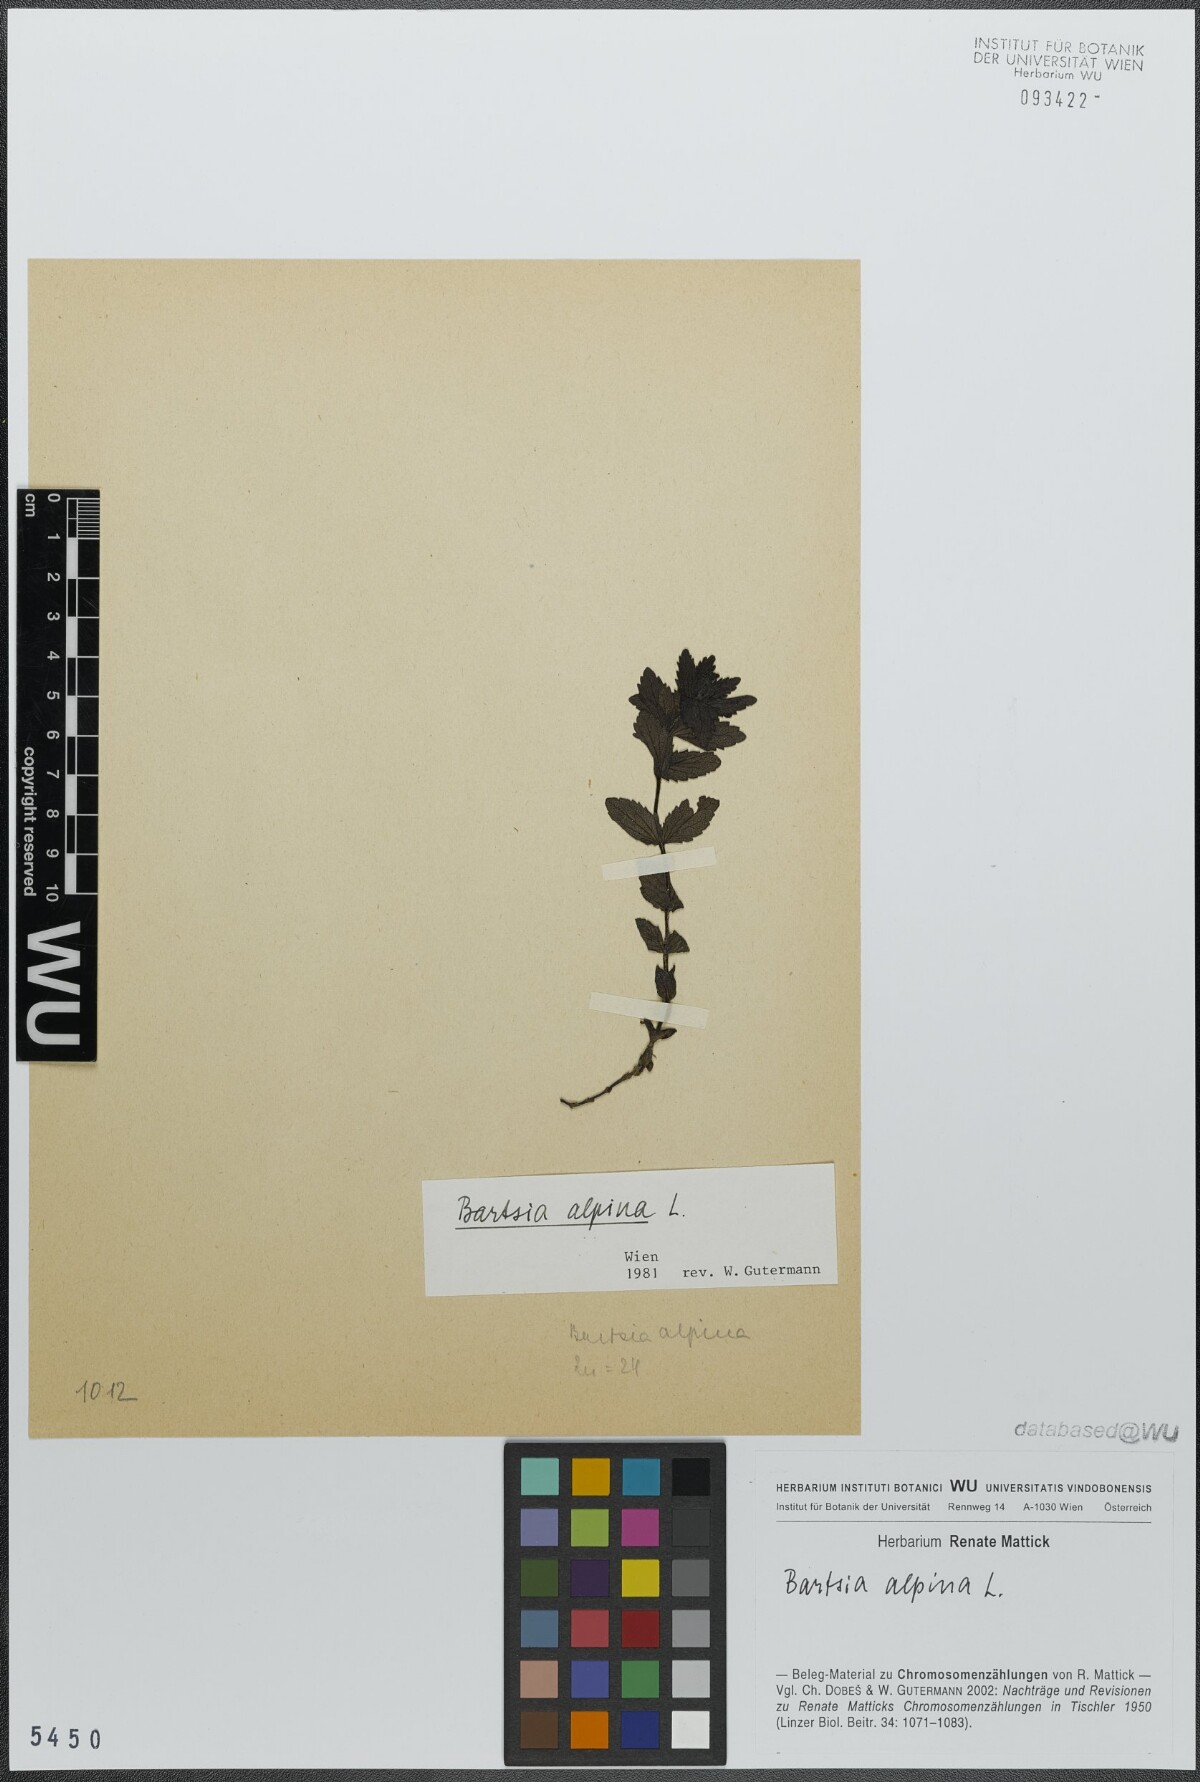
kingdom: Plantae
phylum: Tracheophyta
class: Magnoliopsida
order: Lamiales
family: Orobanchaceae
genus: Bartsia
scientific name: Bartsia alpina
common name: Alpine bartsia
